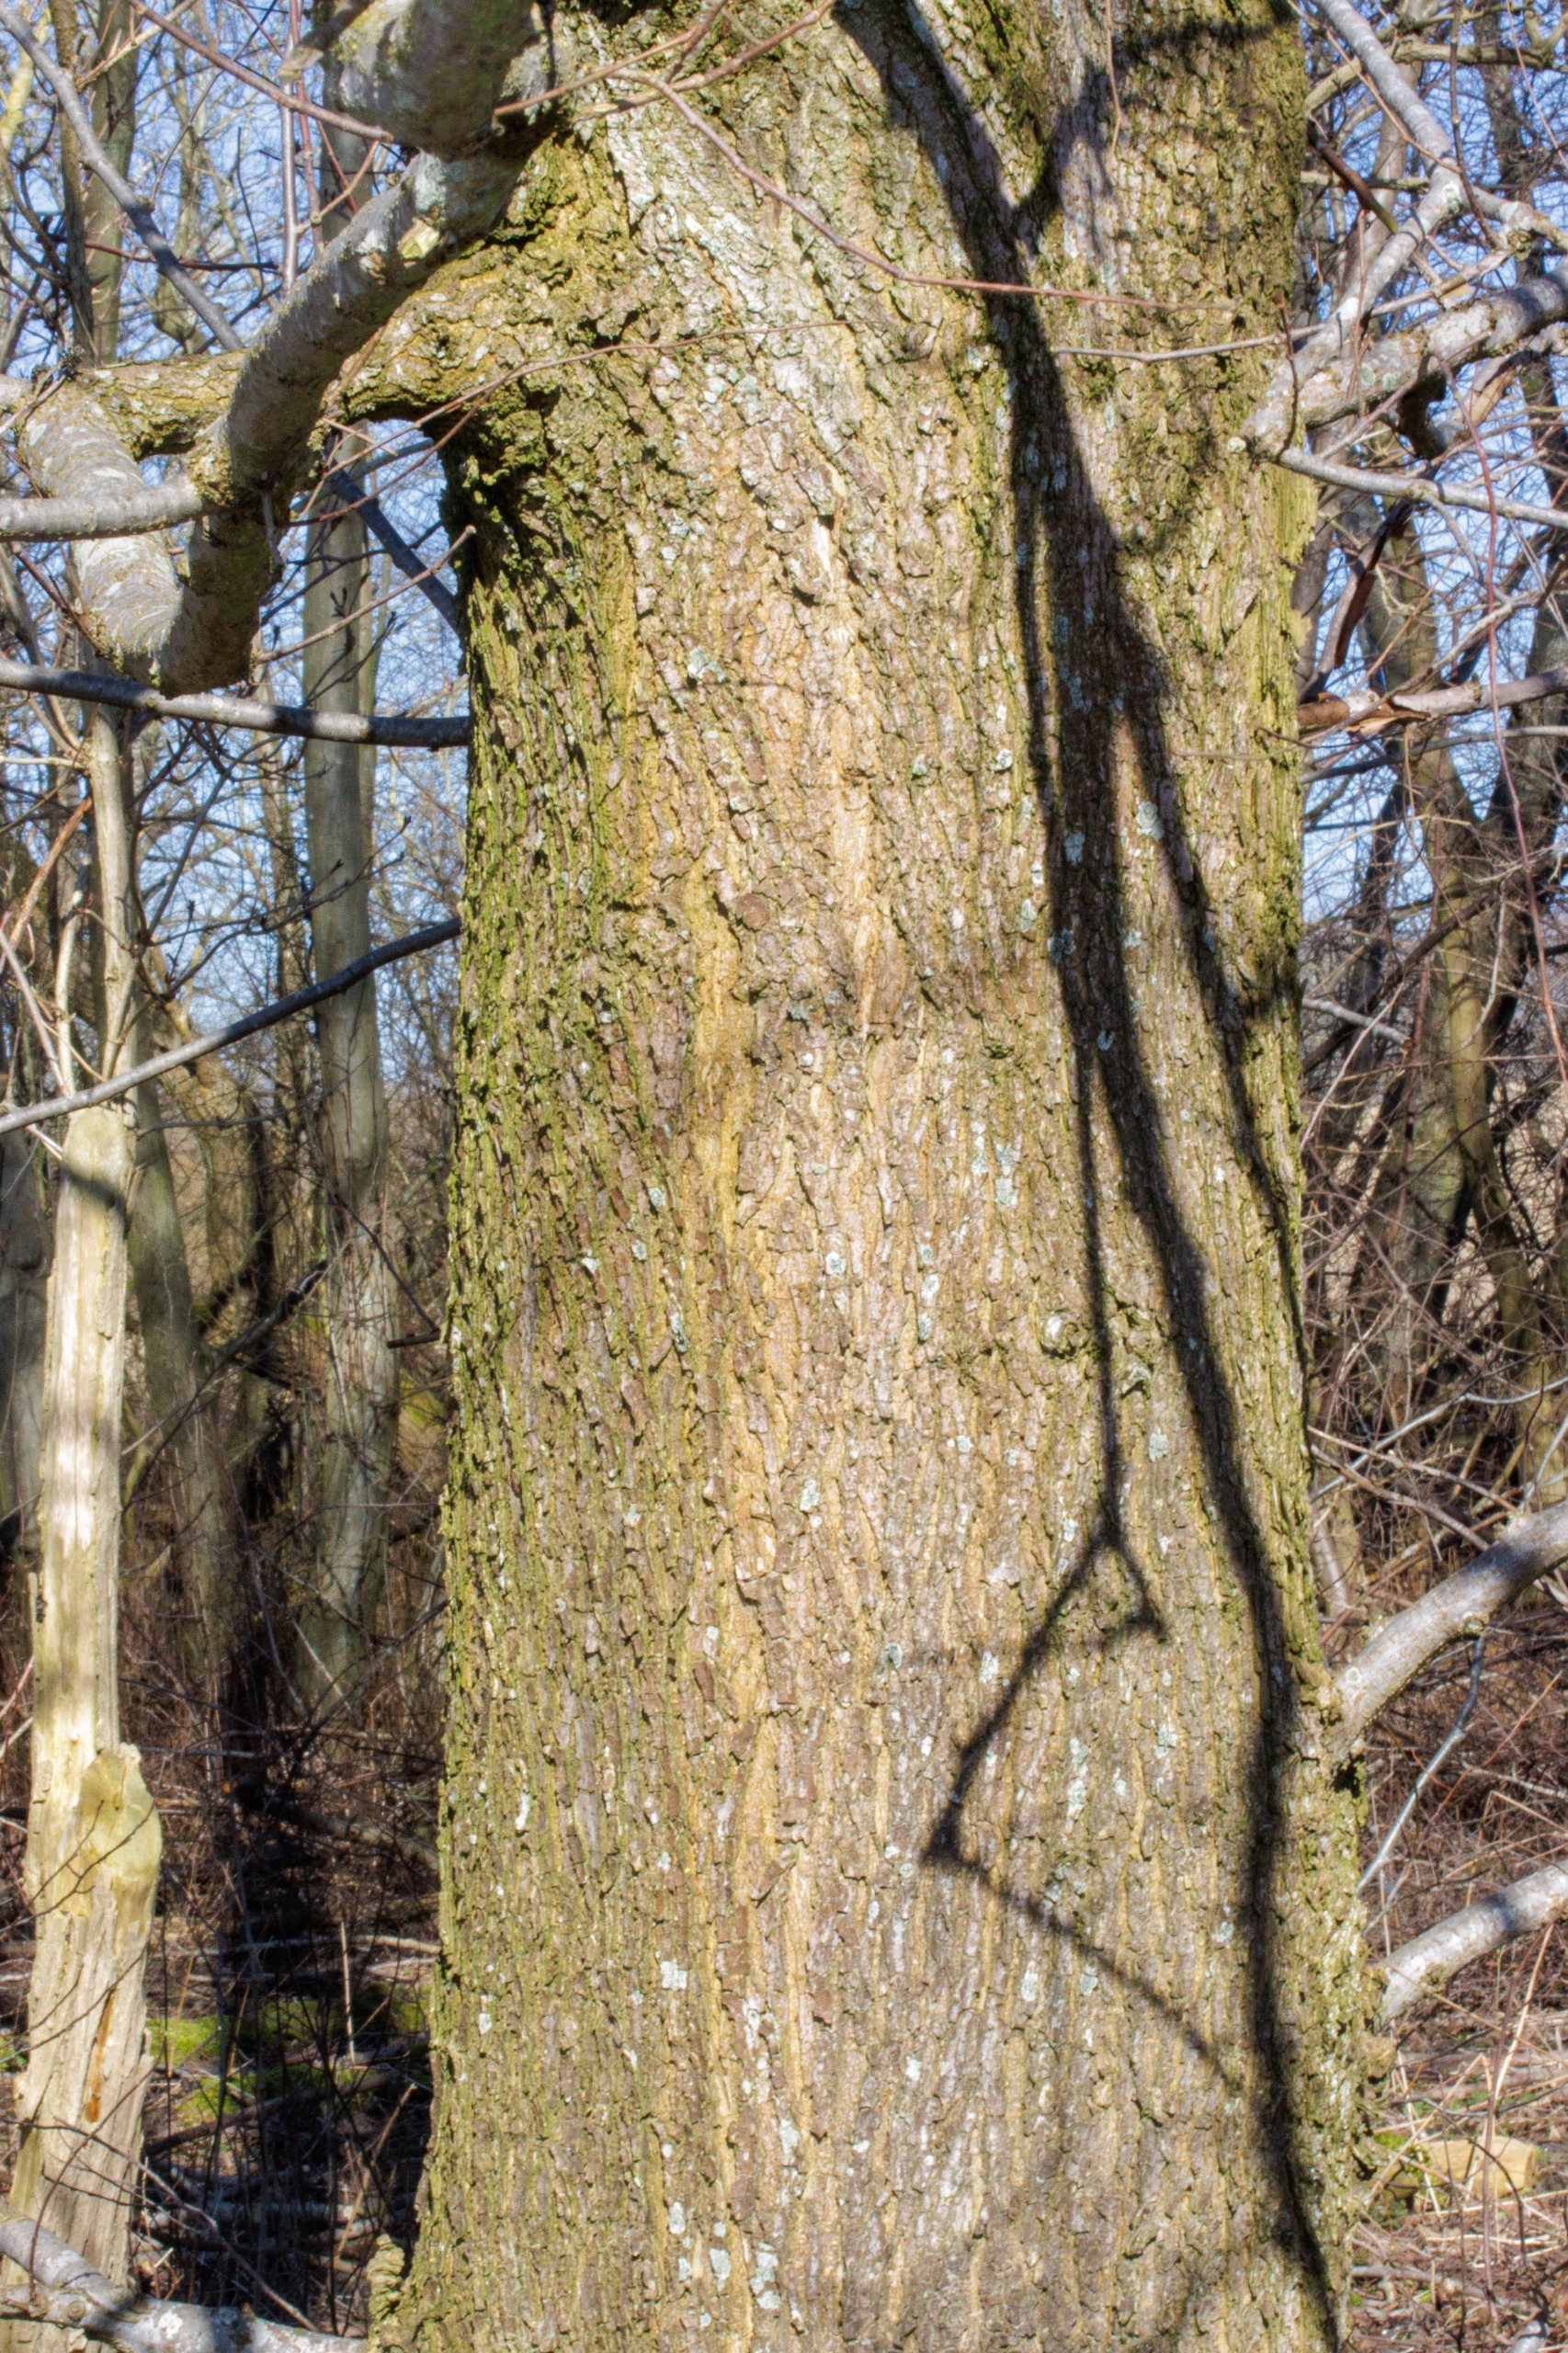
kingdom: Plantae
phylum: Tracheophyta
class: Magnoliopsida
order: Rosales
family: Ulmaceae
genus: Ulmus
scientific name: Ulmus laevis
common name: Skærm-elm
